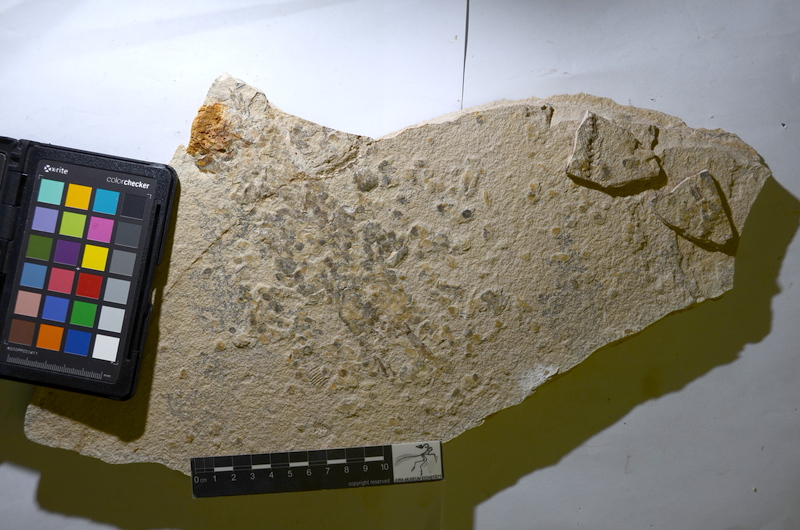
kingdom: Animalia
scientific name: Animalia
